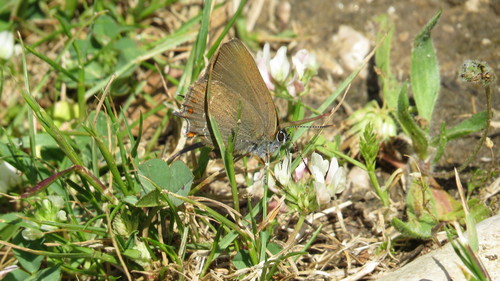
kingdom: Animalia
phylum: Arthropoda
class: Insecta
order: Lepidoptera
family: Lycaenidae
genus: Fixsenia
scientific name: Fixsenia esculi
